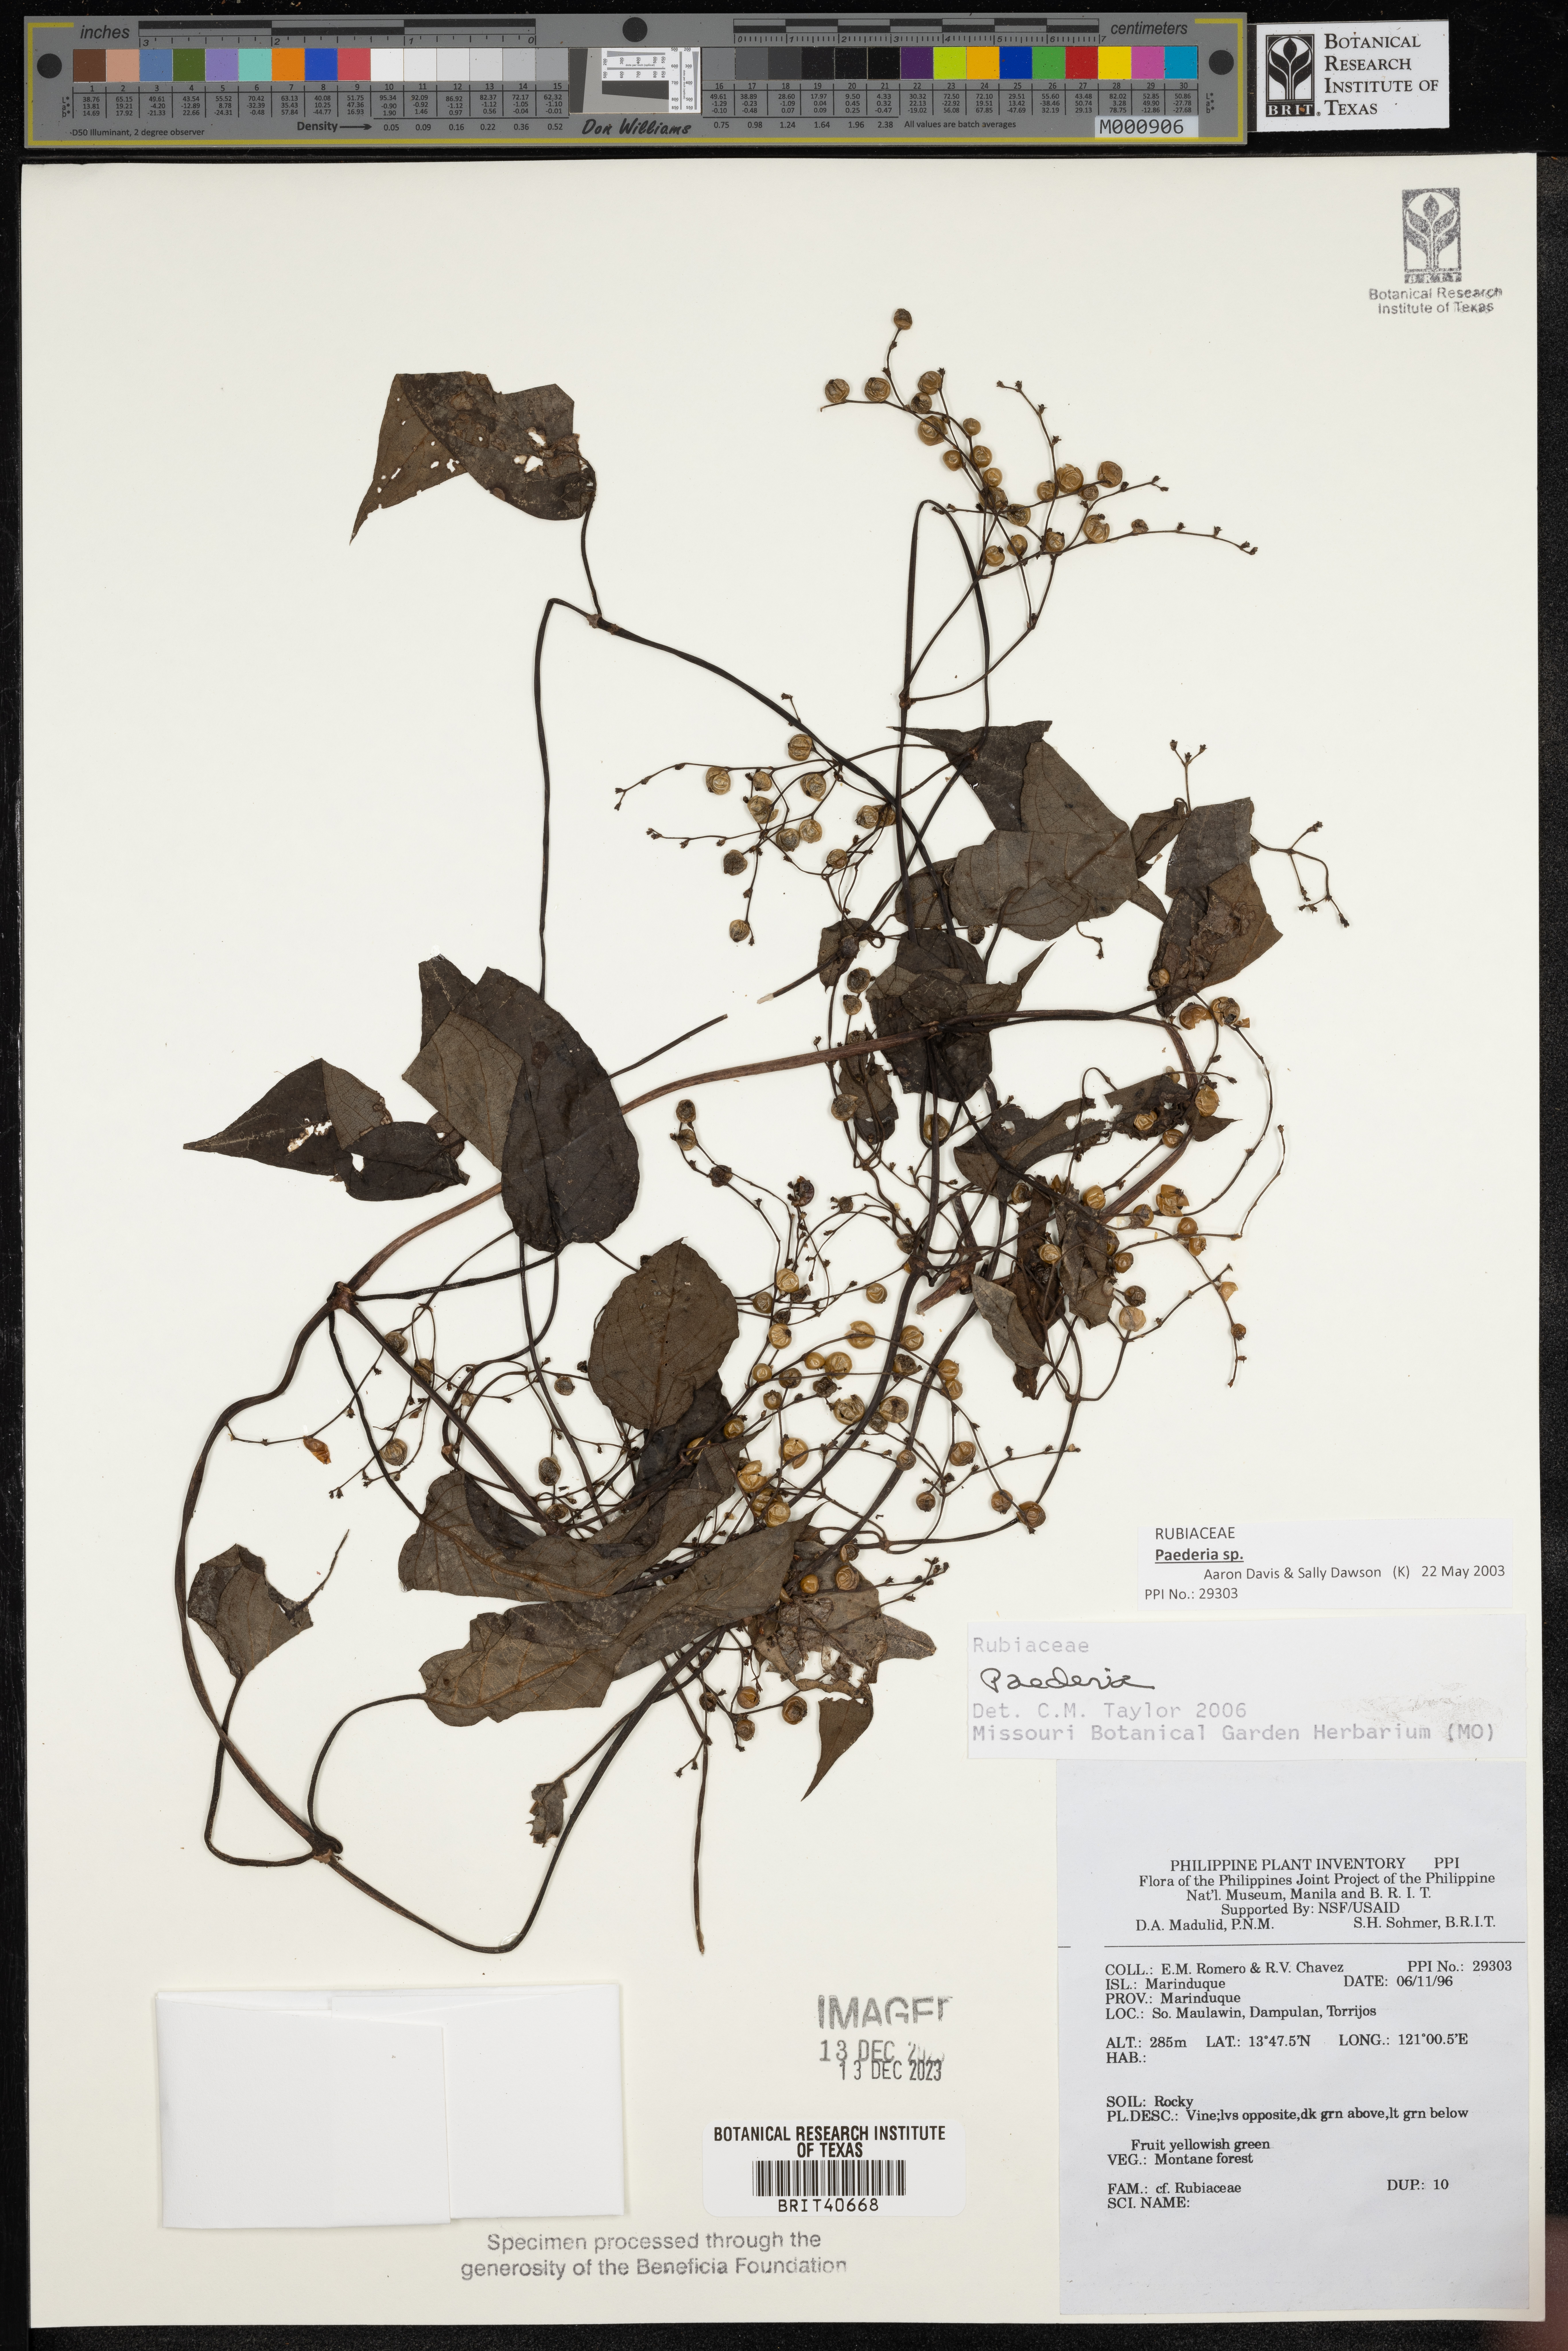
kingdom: Plantae
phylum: Tracheophyta
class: Magnoliopsida
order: Gentianales
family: Rubiaceae
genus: Paederia
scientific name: Paederia
